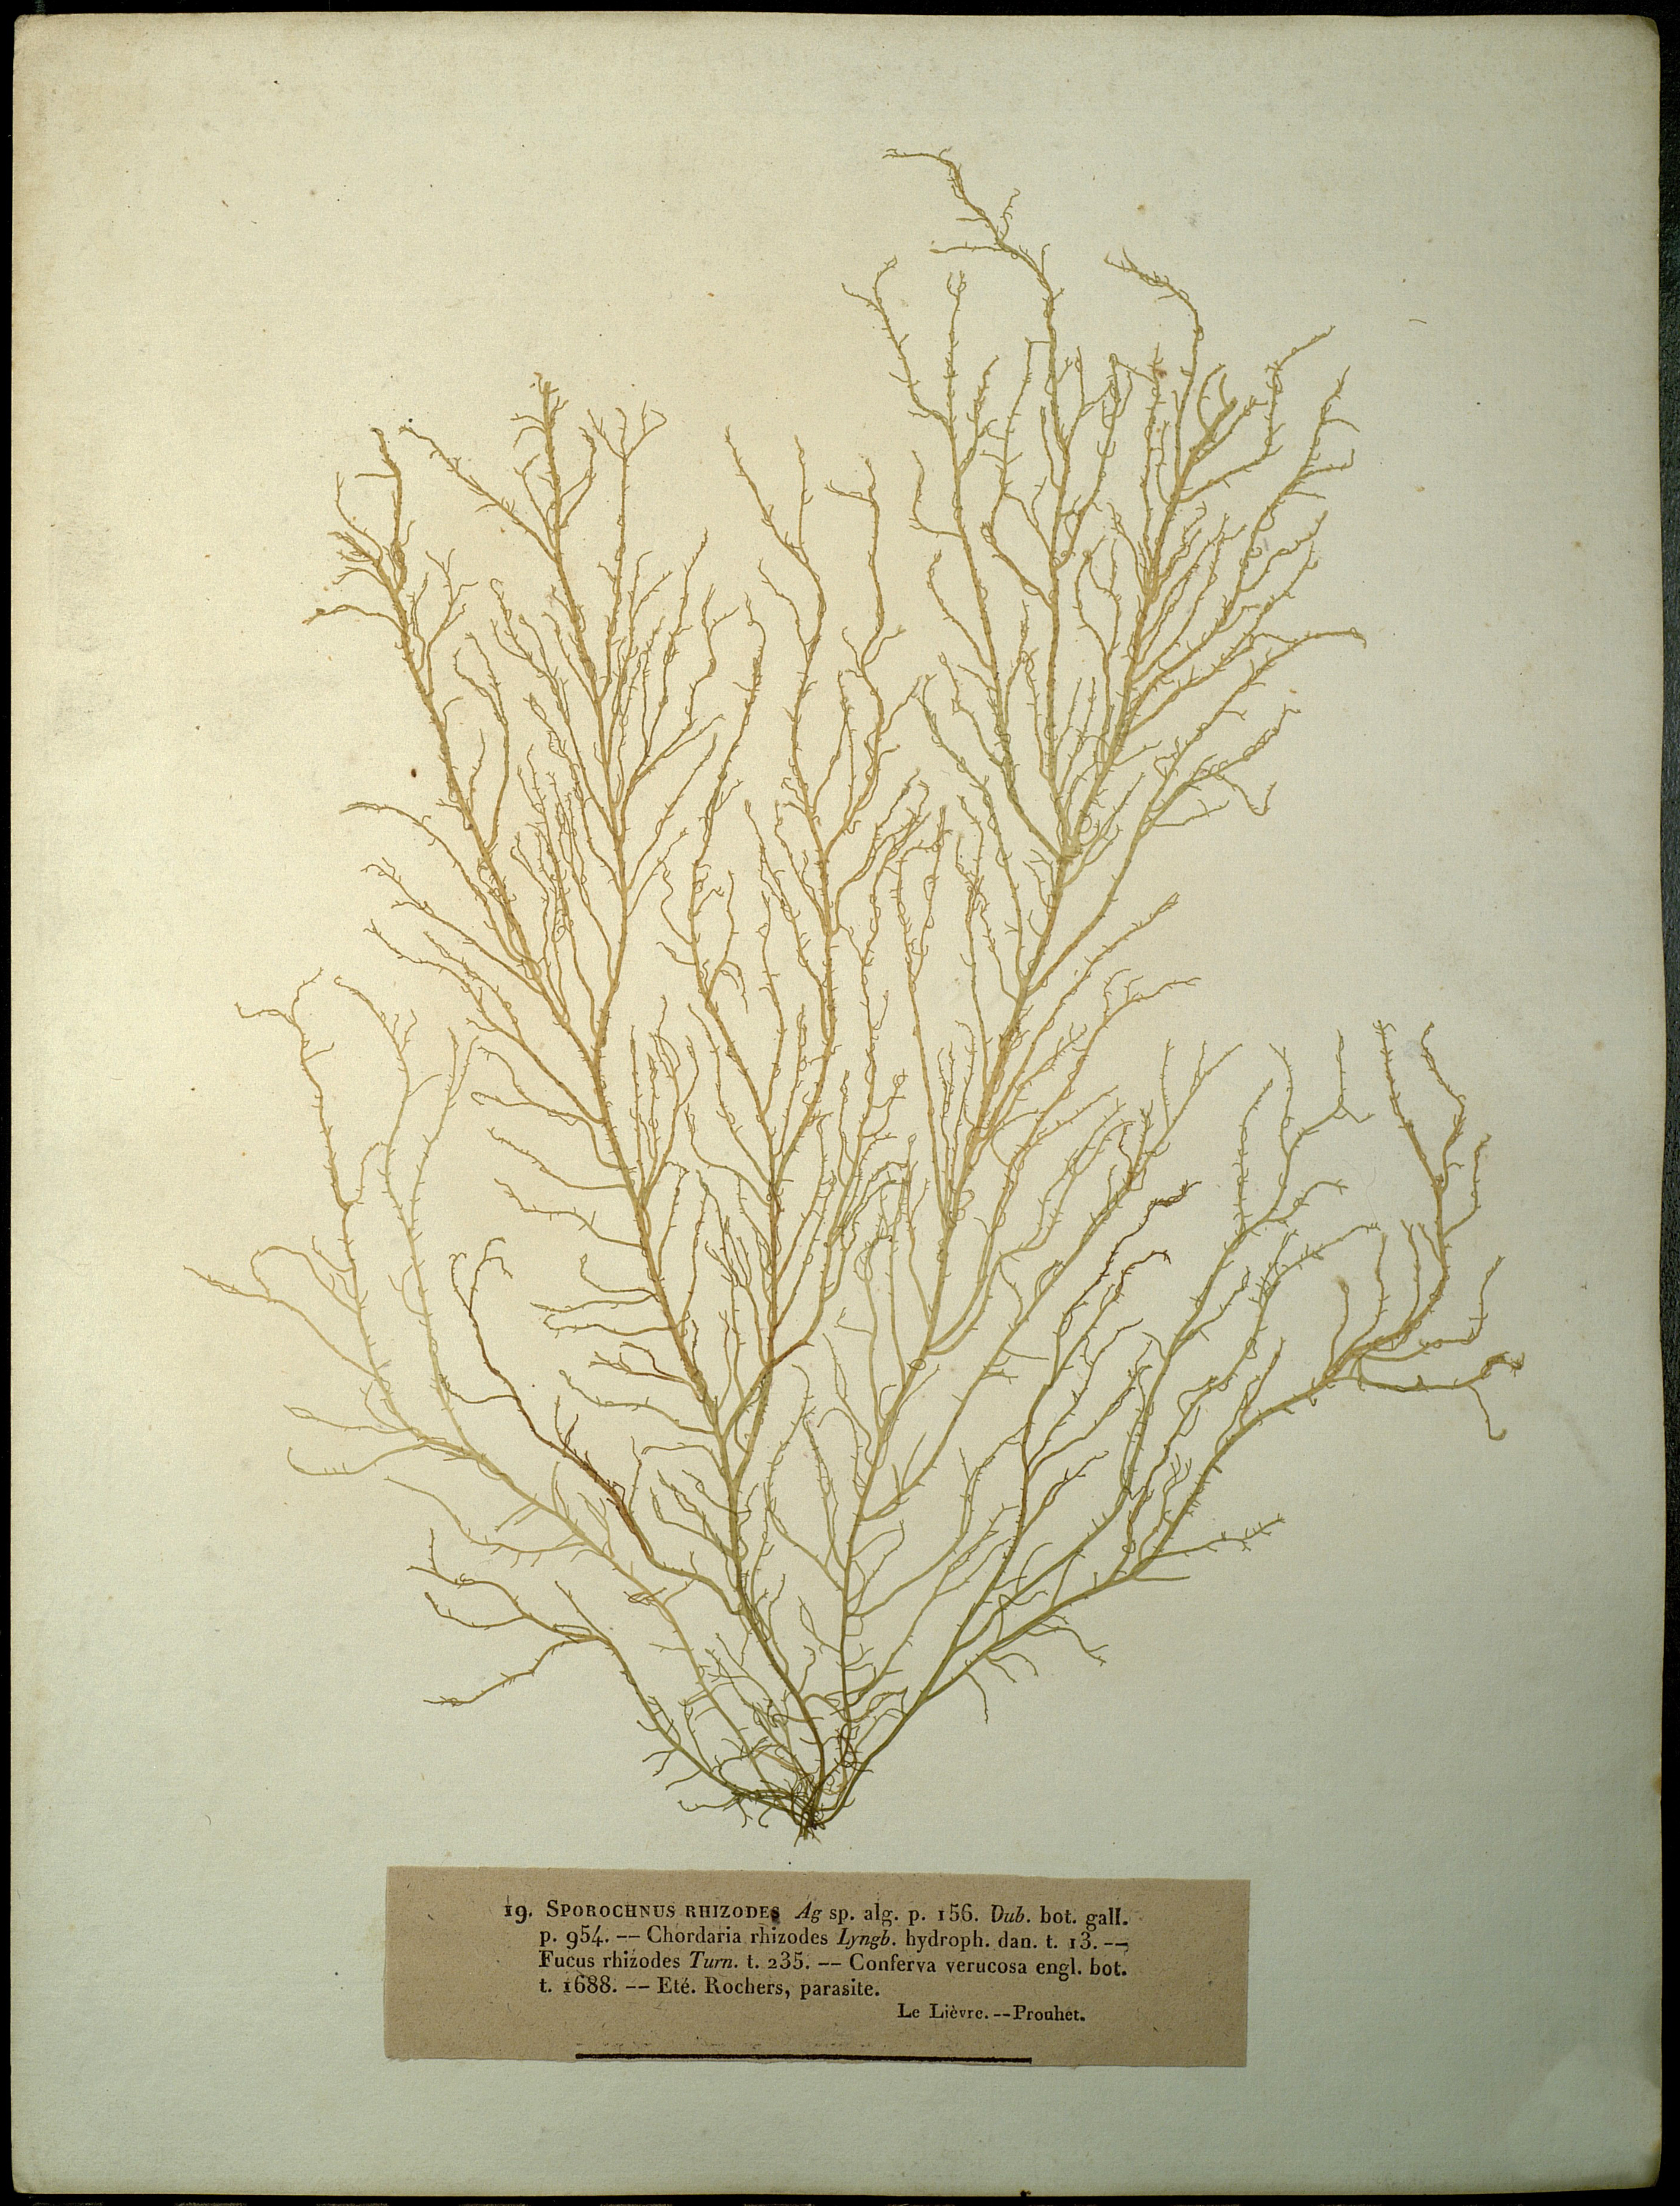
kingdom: Chromista
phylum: Ochrophyta
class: Phaeophyceae
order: Ectocarpales
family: Chordariaceae
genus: Stilophora
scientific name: Stilophora tenella
